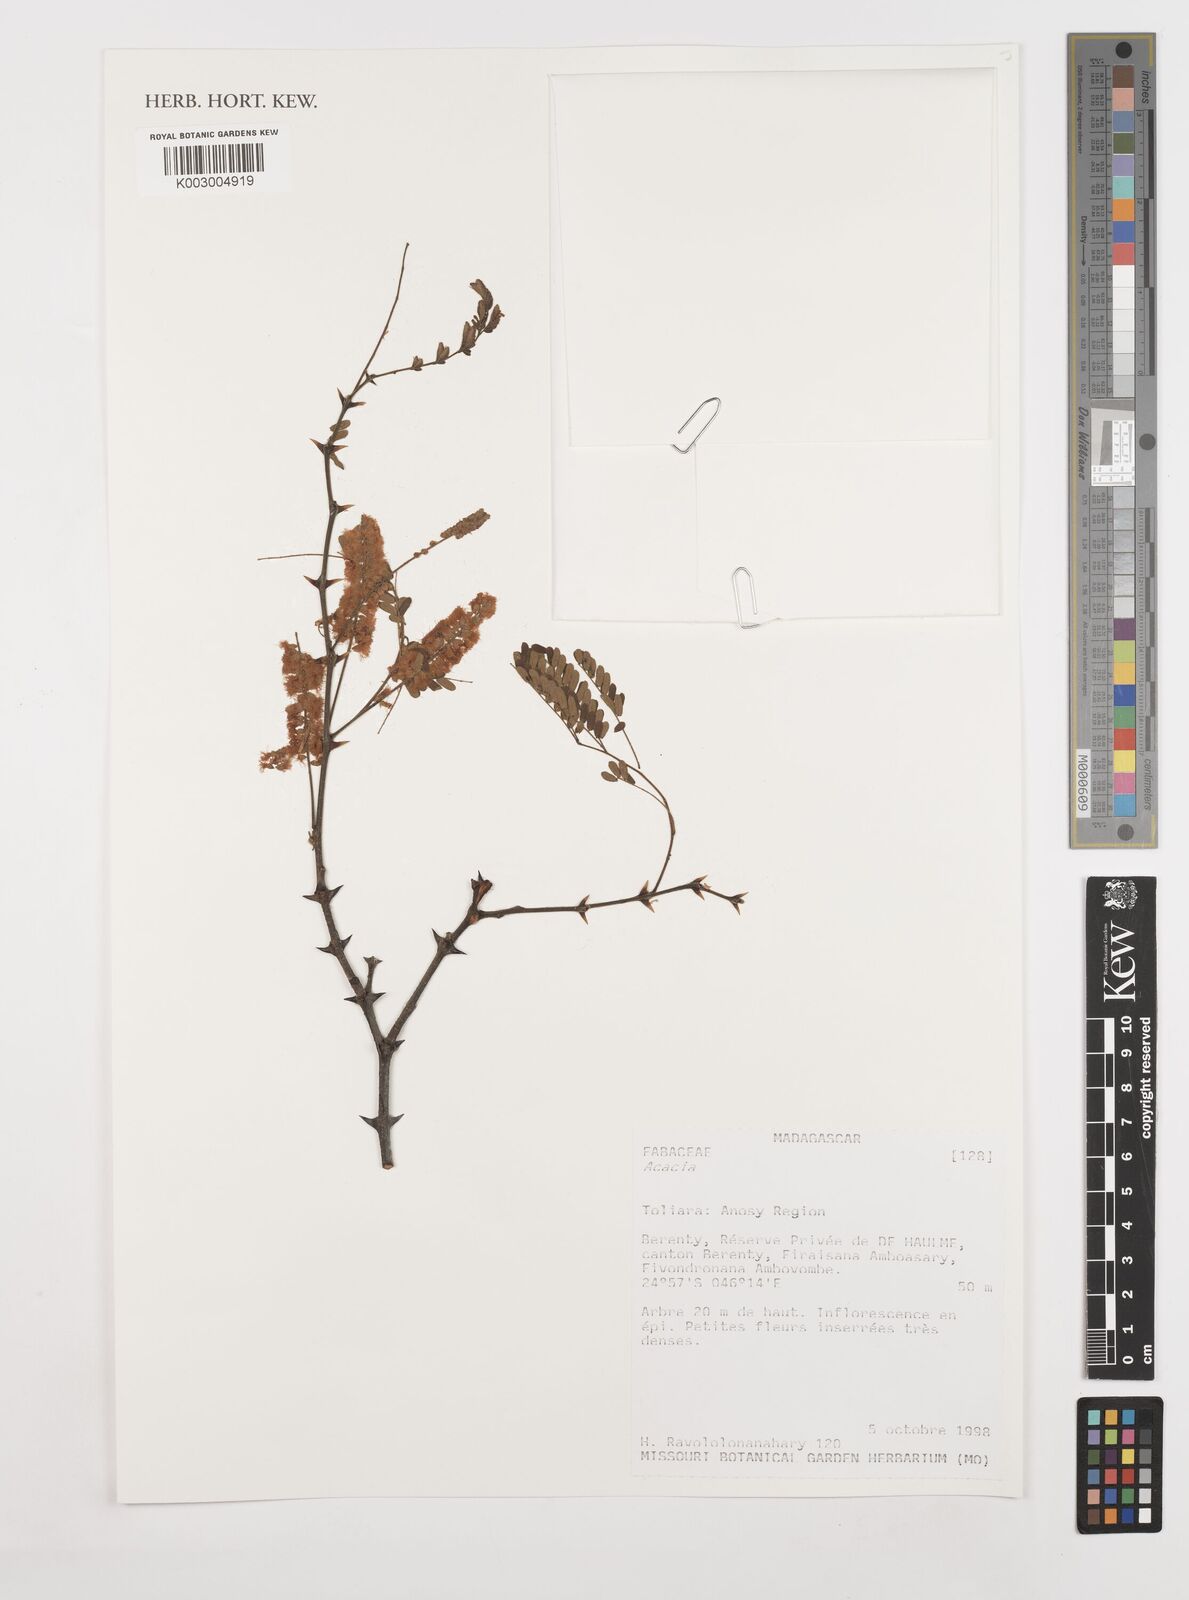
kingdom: Plantae
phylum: Tracheophyta
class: Magnoliopsida
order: Fabales
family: Fabaceae
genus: Acacia
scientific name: Acacia
